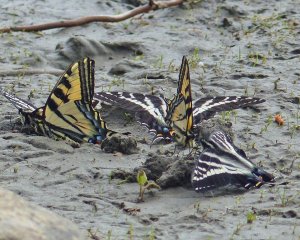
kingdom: Animalia
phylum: Arthropoda
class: Insecta
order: Lepidoptera
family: Papilionidae
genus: Pterourus
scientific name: Pterourus rutulus
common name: Western Tiger Swallowtail
